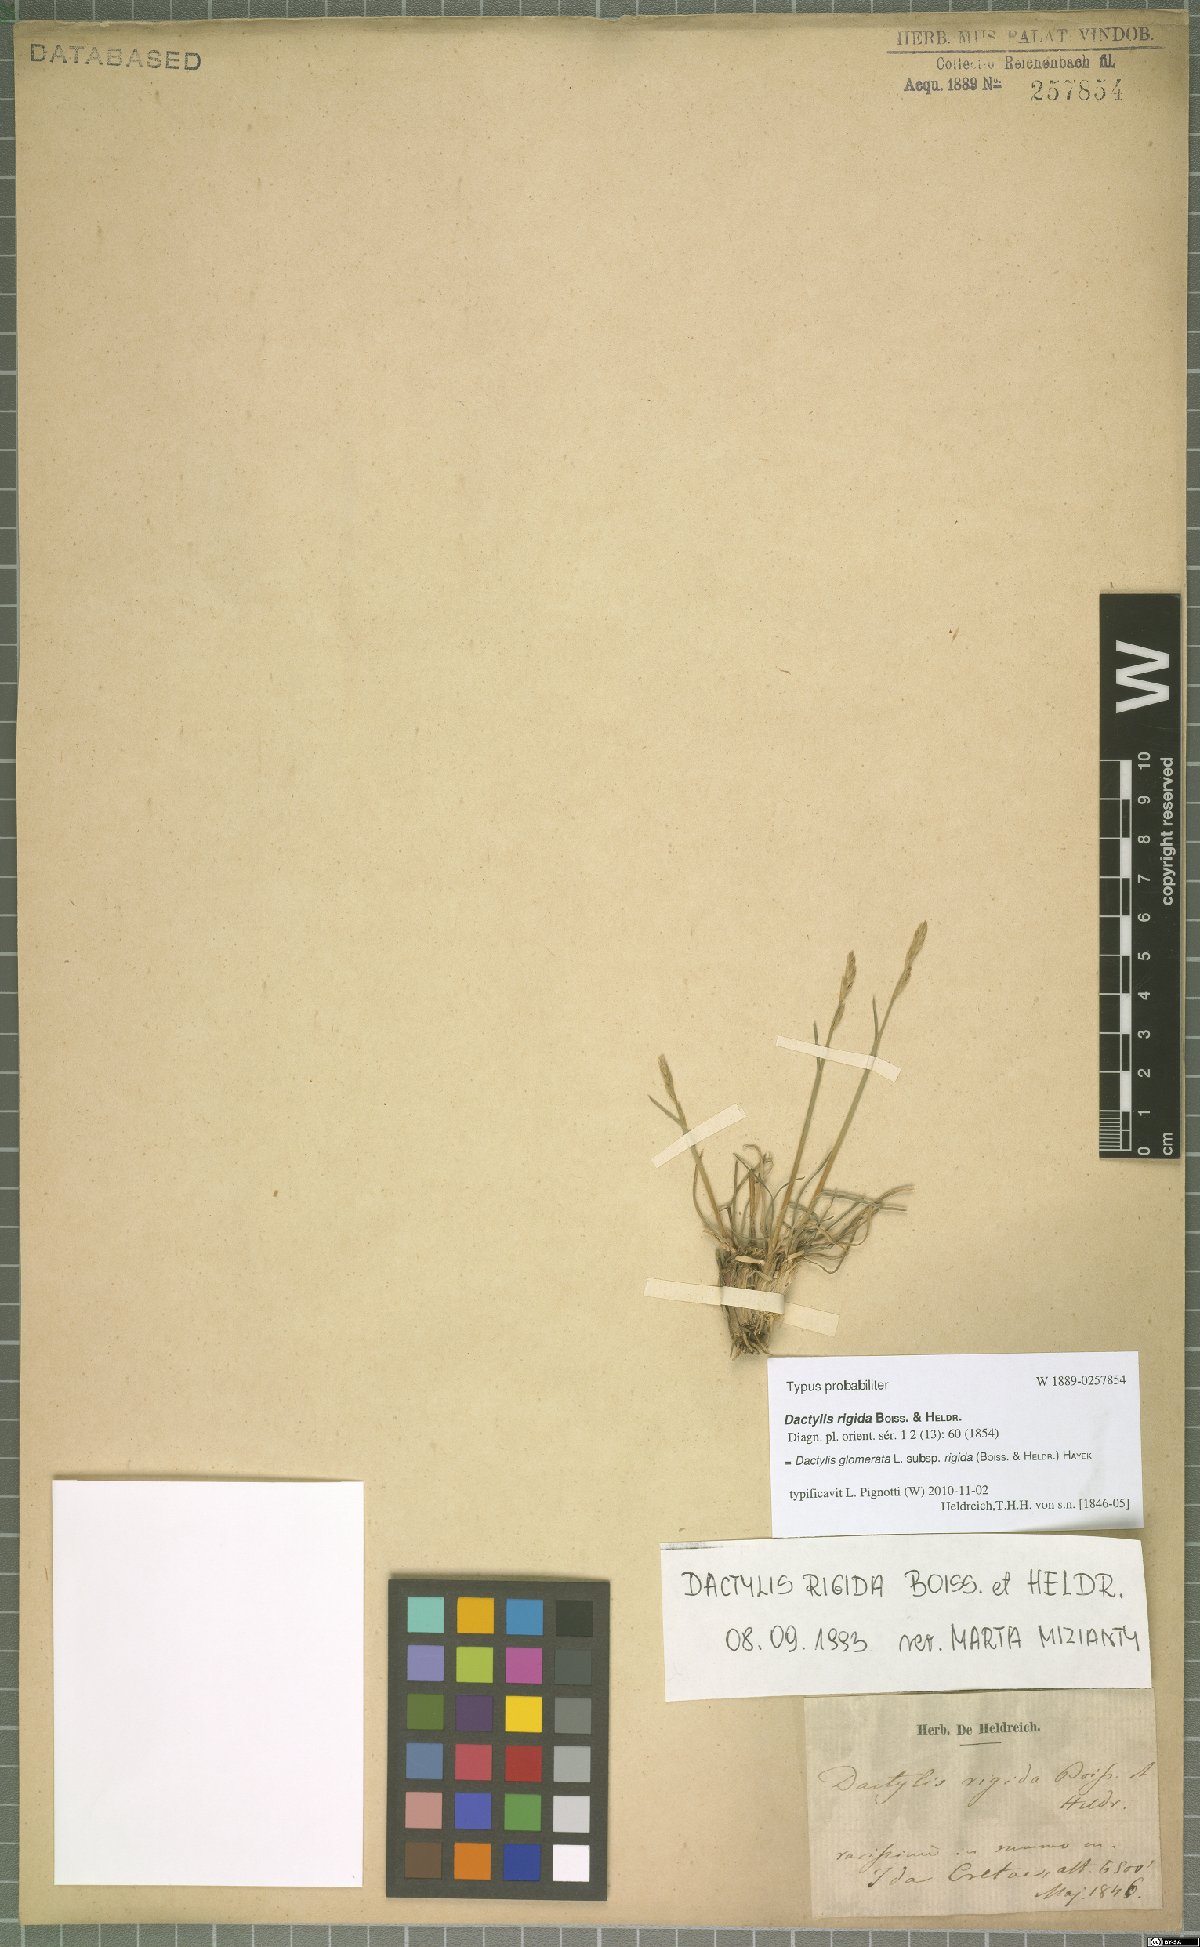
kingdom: Plantae
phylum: Tracheophyta
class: Liliopsida
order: Poales
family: Poaceae
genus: Dactylis
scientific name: Dactylis glomerata
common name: Orchardgrass
